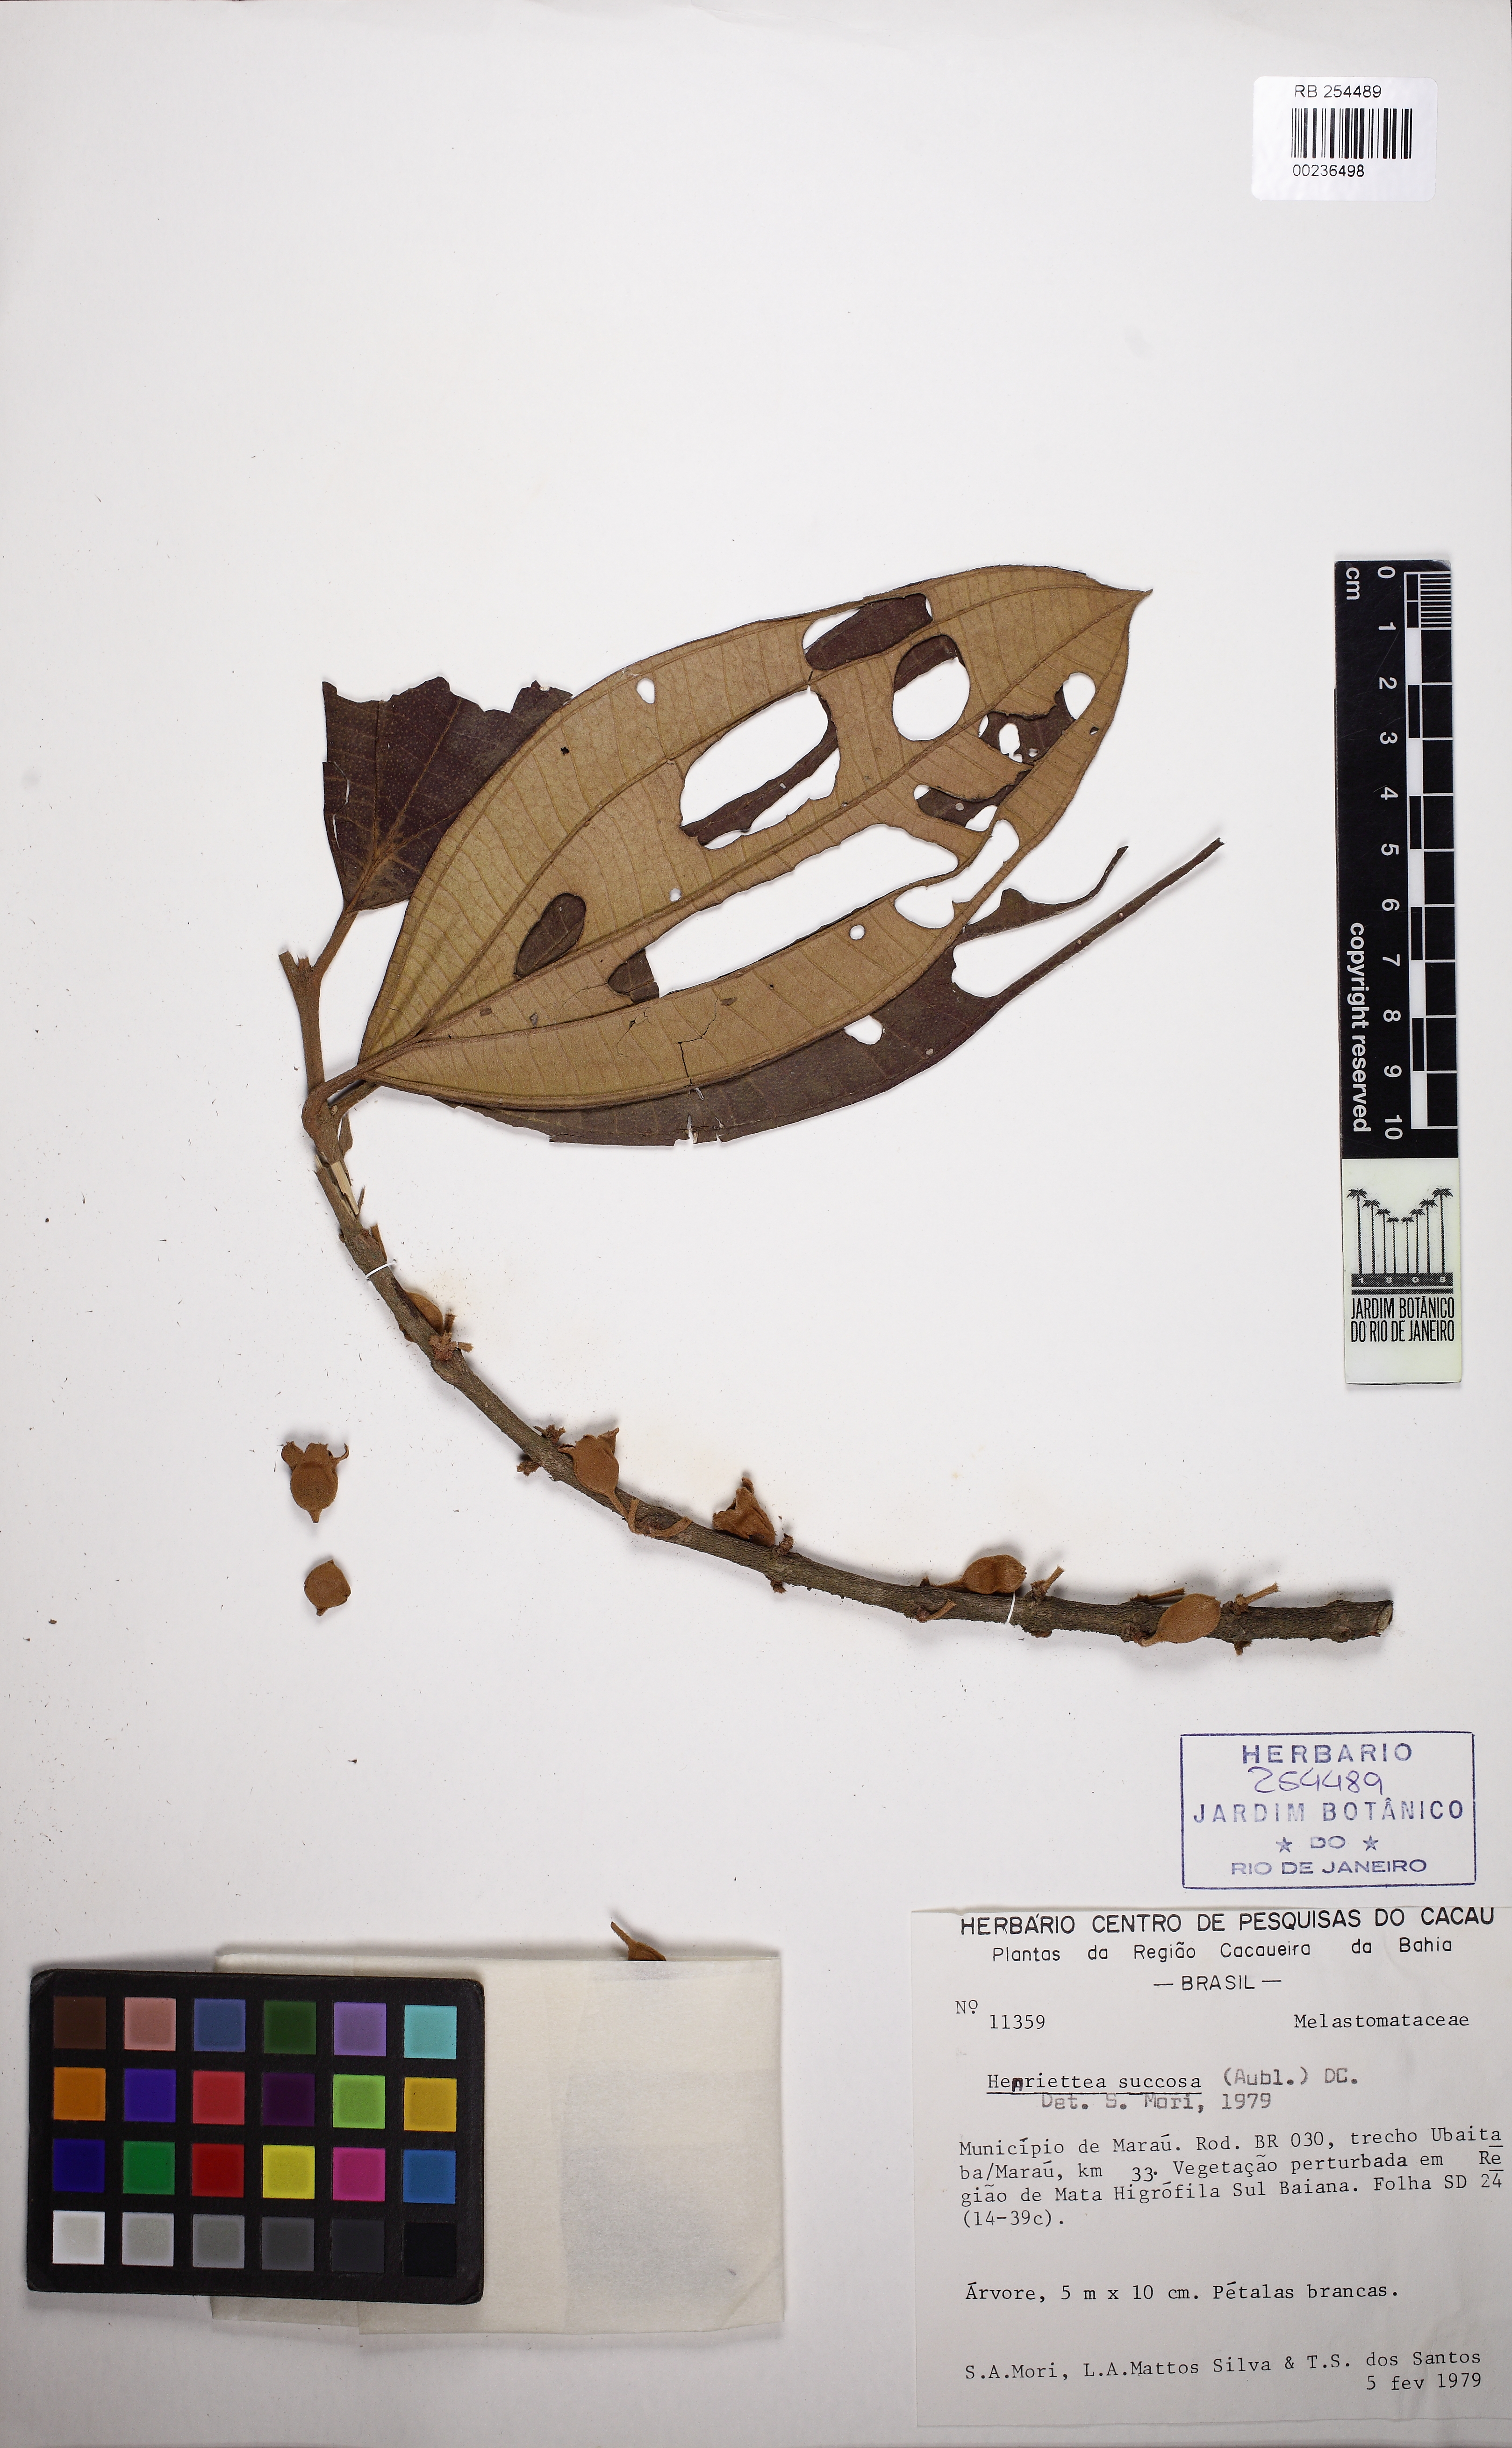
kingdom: Plantae
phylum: Tracheophyta
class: Magnoliopsida
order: Myrtales
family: Melastomataceae
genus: Henriettea
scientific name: Henriettea succosa
